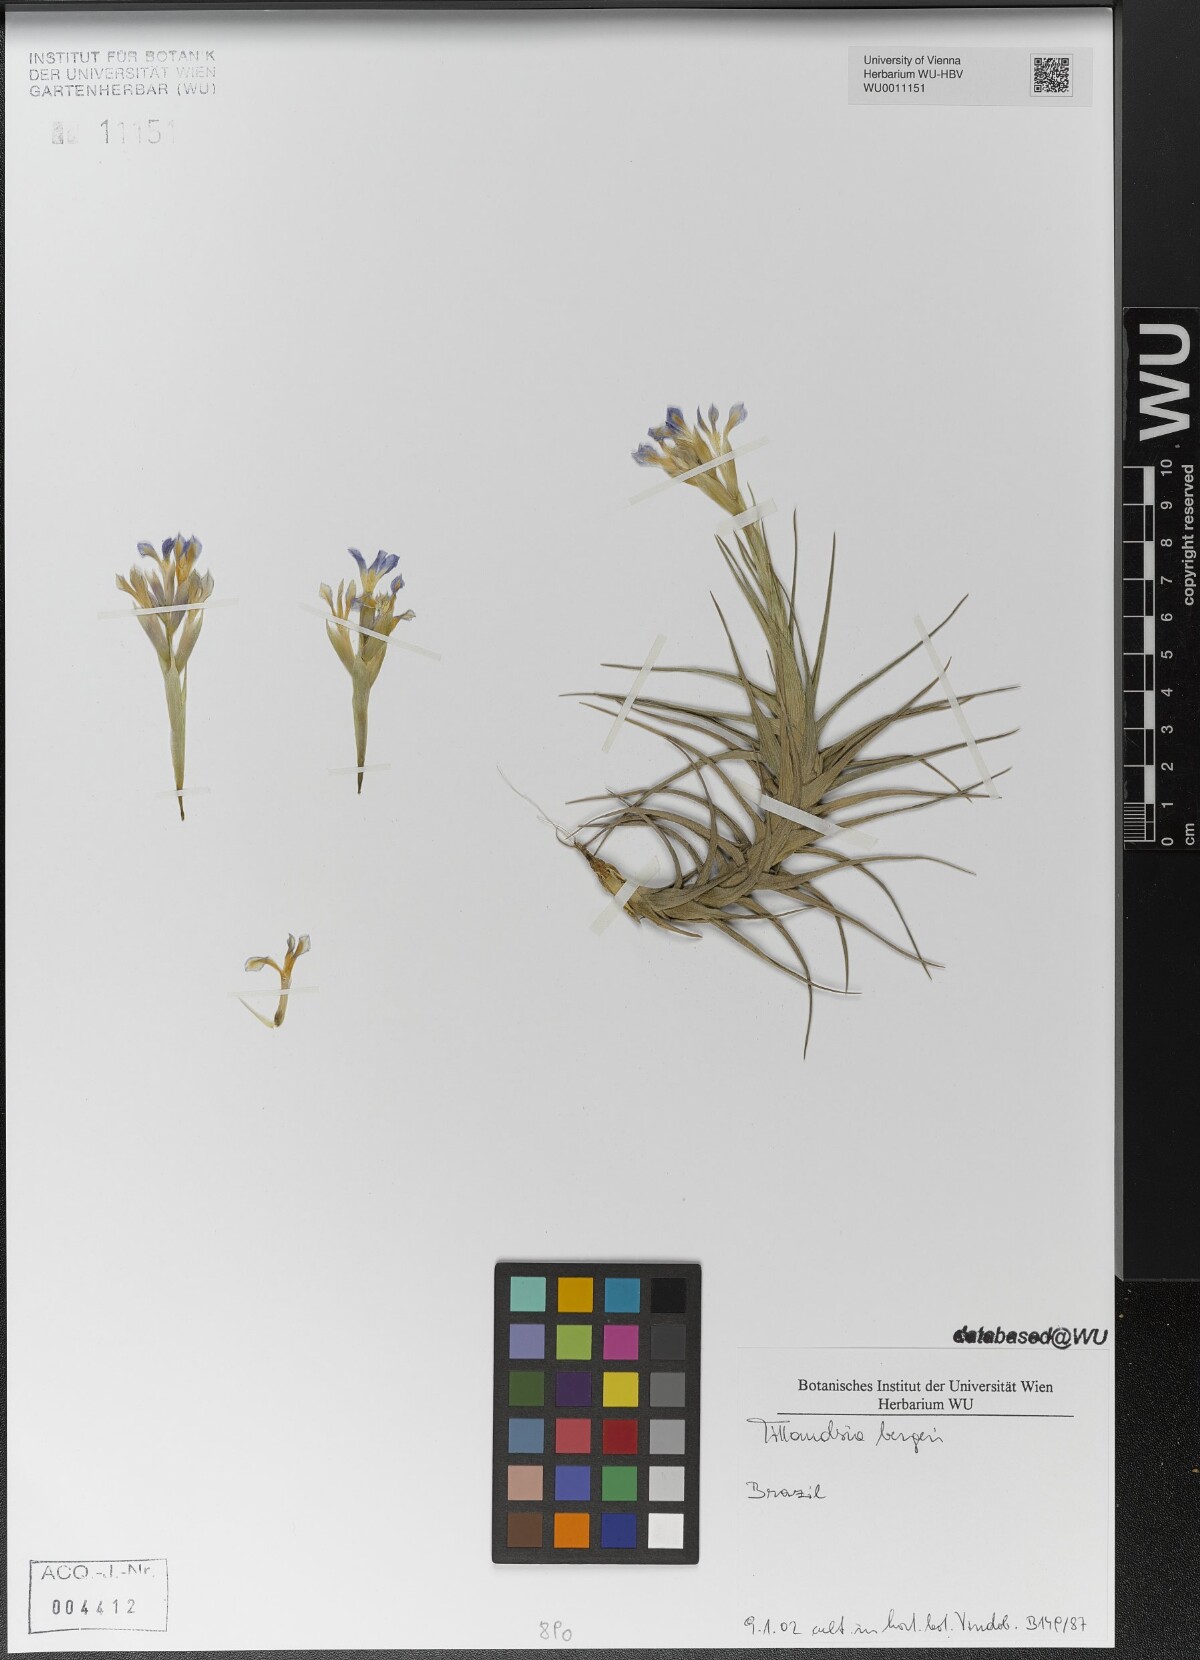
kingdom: Plantae
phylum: Tracheophyta
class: Liliopsida
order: Poales
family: Bromeliaceae
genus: Tillandsia
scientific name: Tillandsia bergeri
